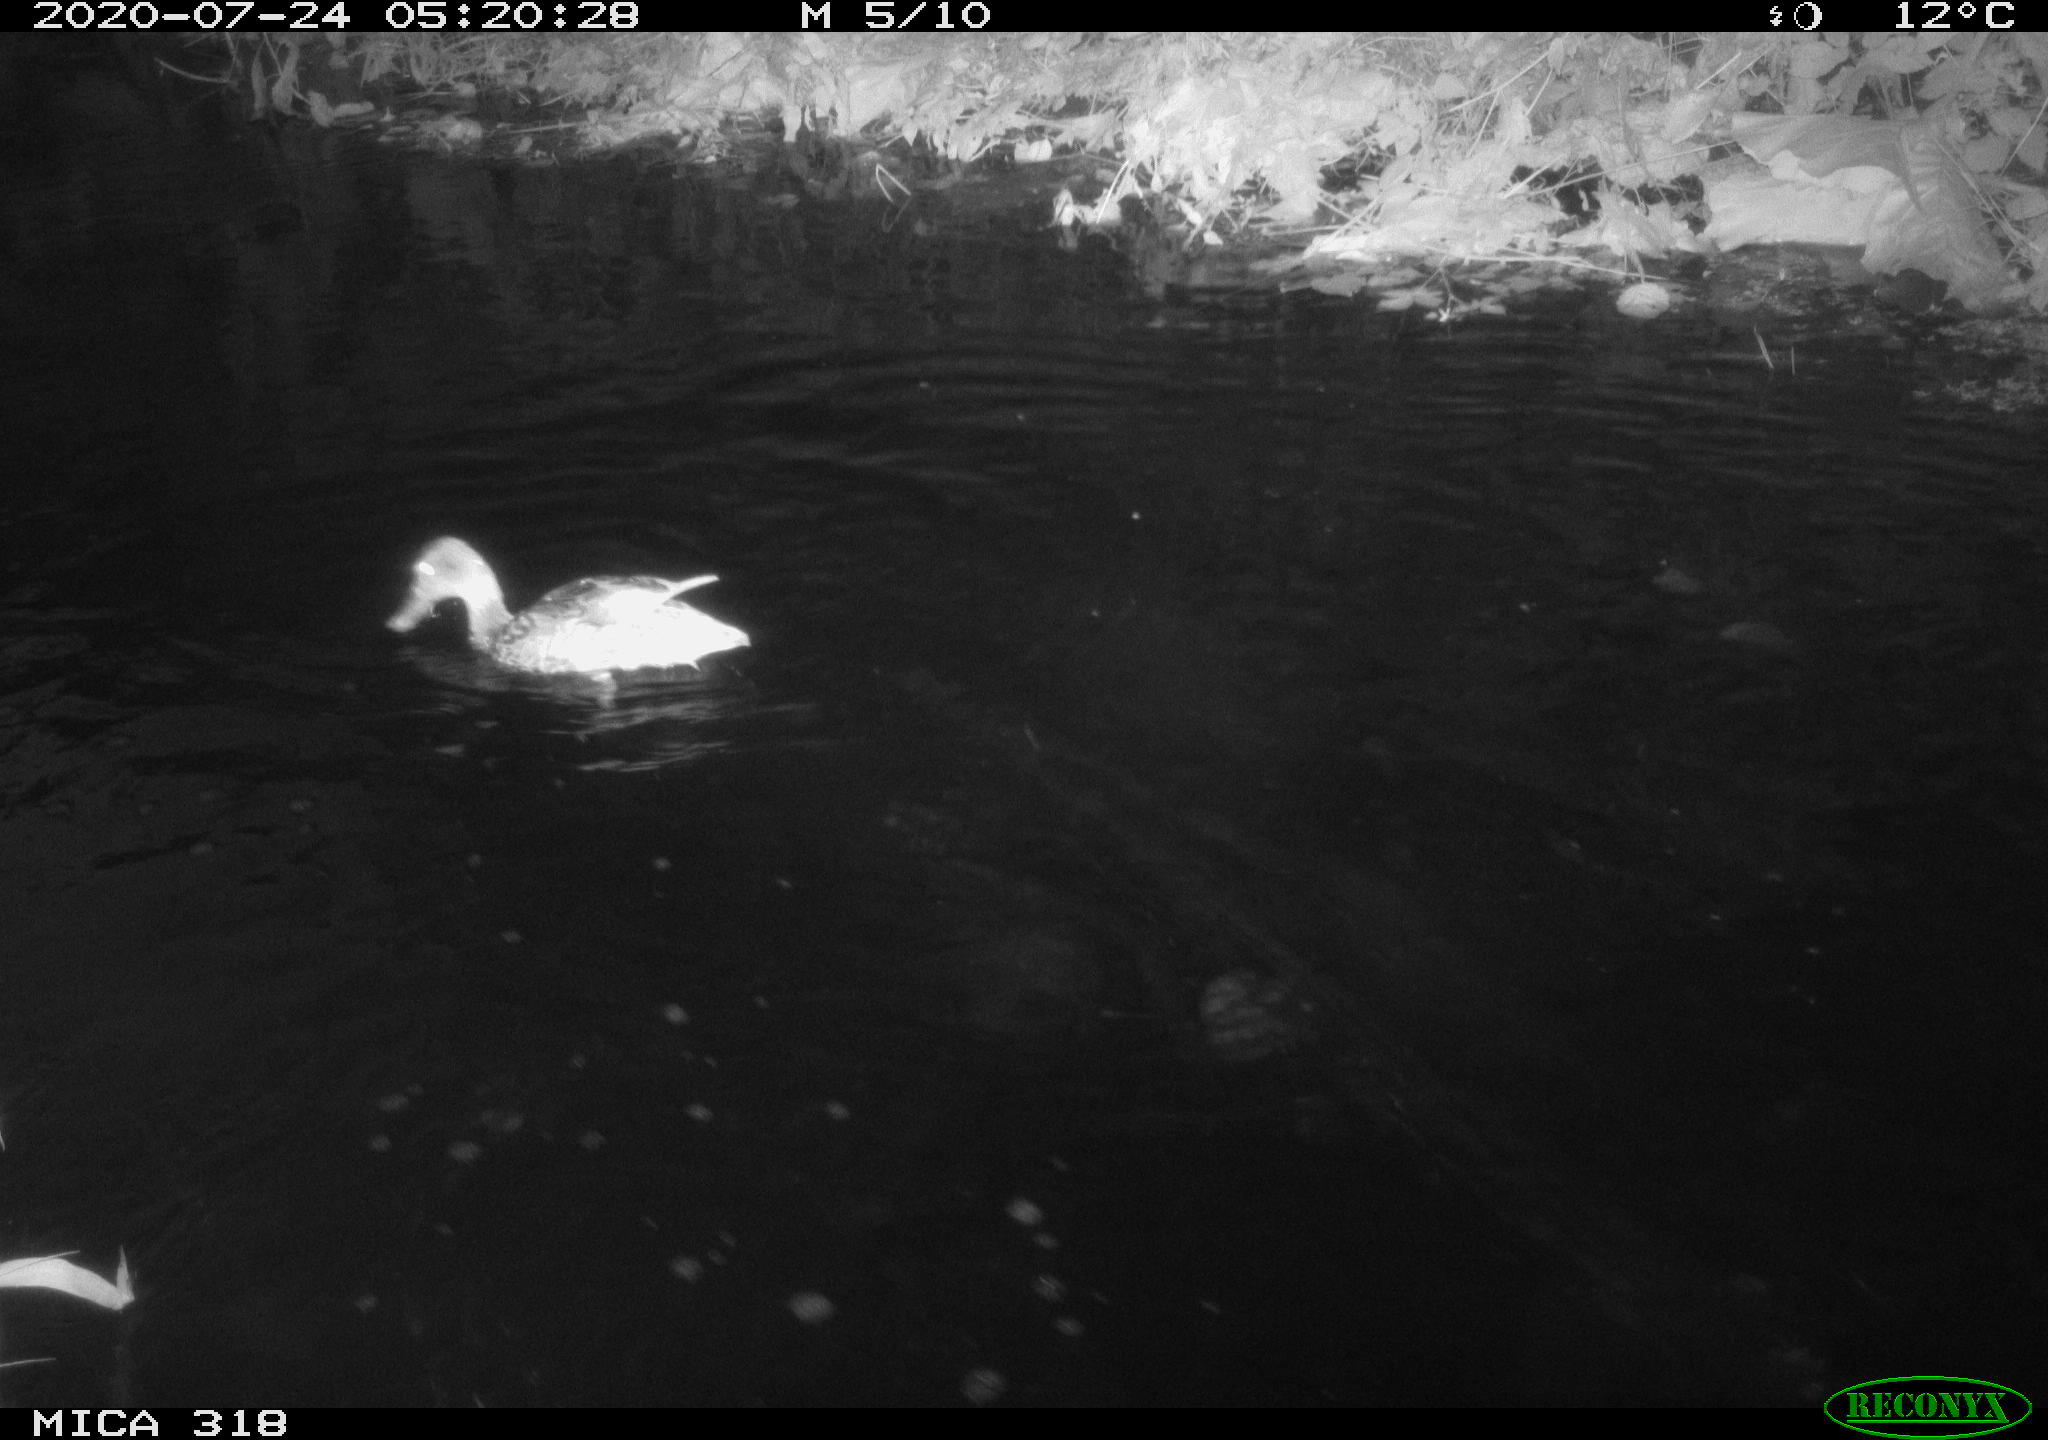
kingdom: Animalia
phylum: Chordata
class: Aves
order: Anseriformes
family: Anatidae
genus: Anas
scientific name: Anas platyrhynchos
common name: Mallard
